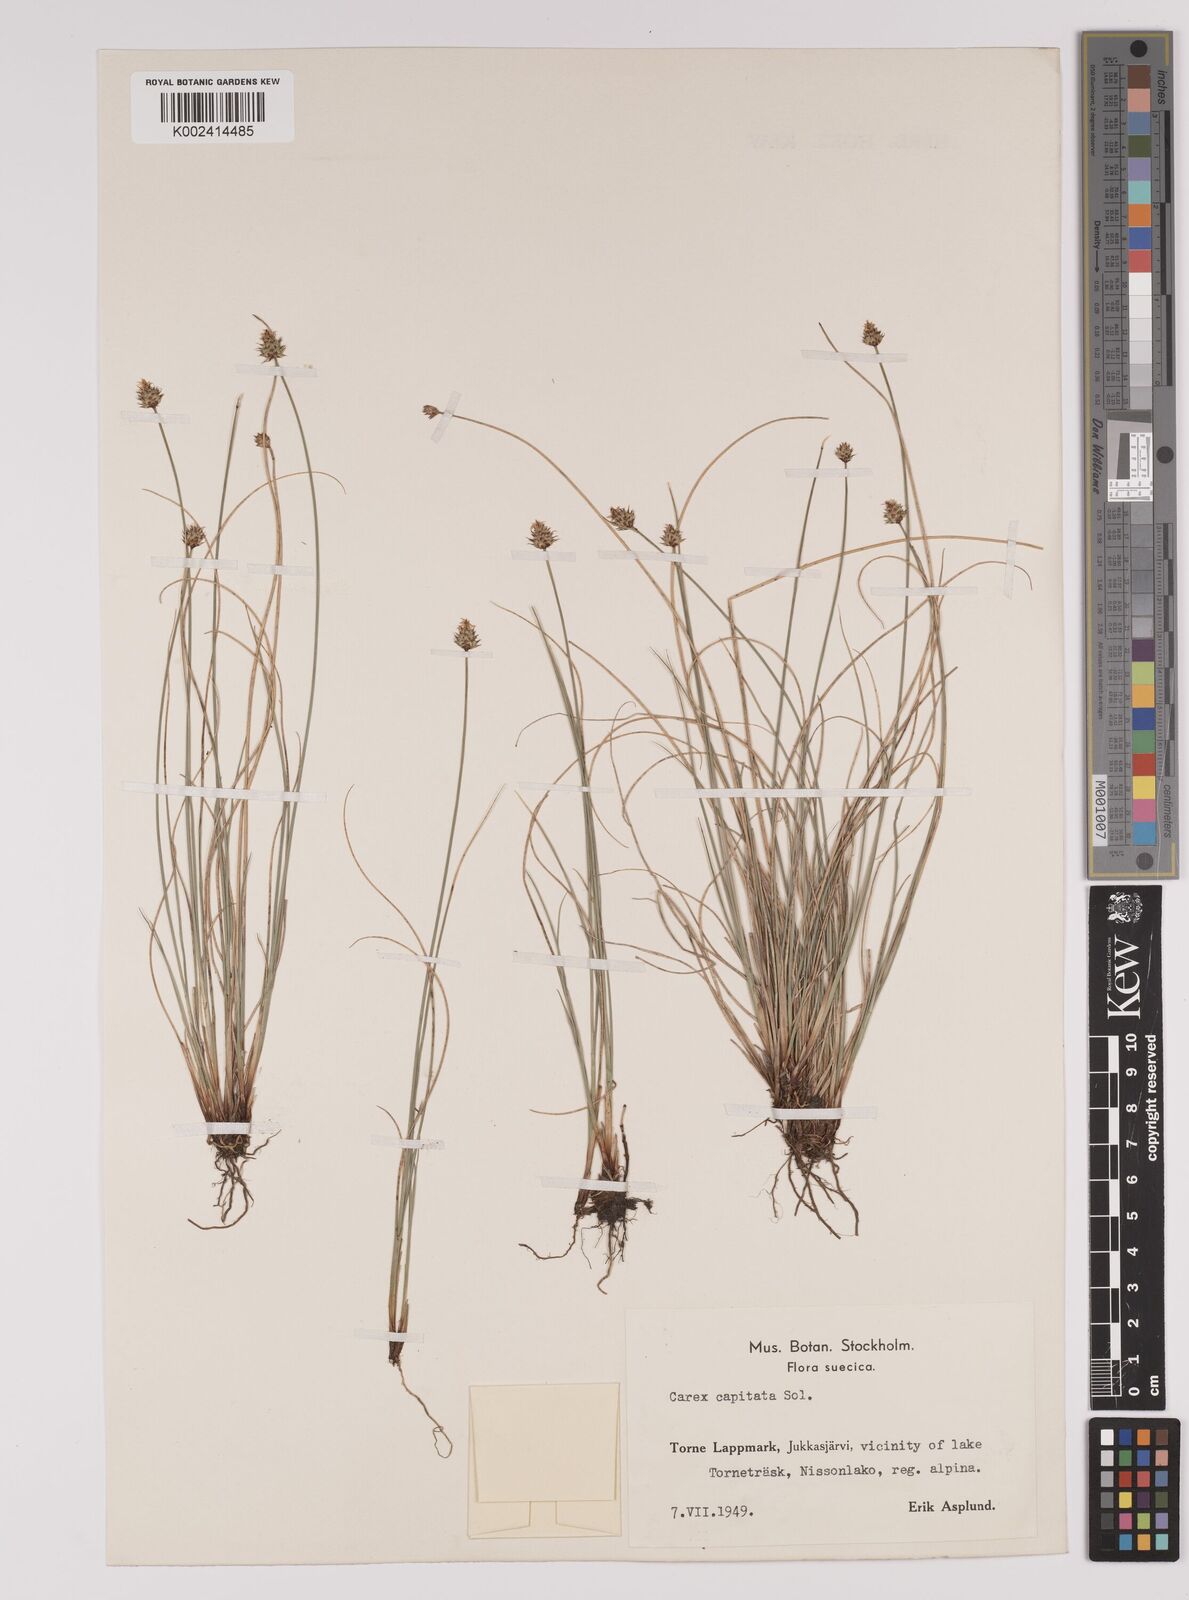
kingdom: Plantae
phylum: Tracheophyta
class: Liliopsida
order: Poales
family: Cyperaceae
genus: Carex
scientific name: Carex capitata
